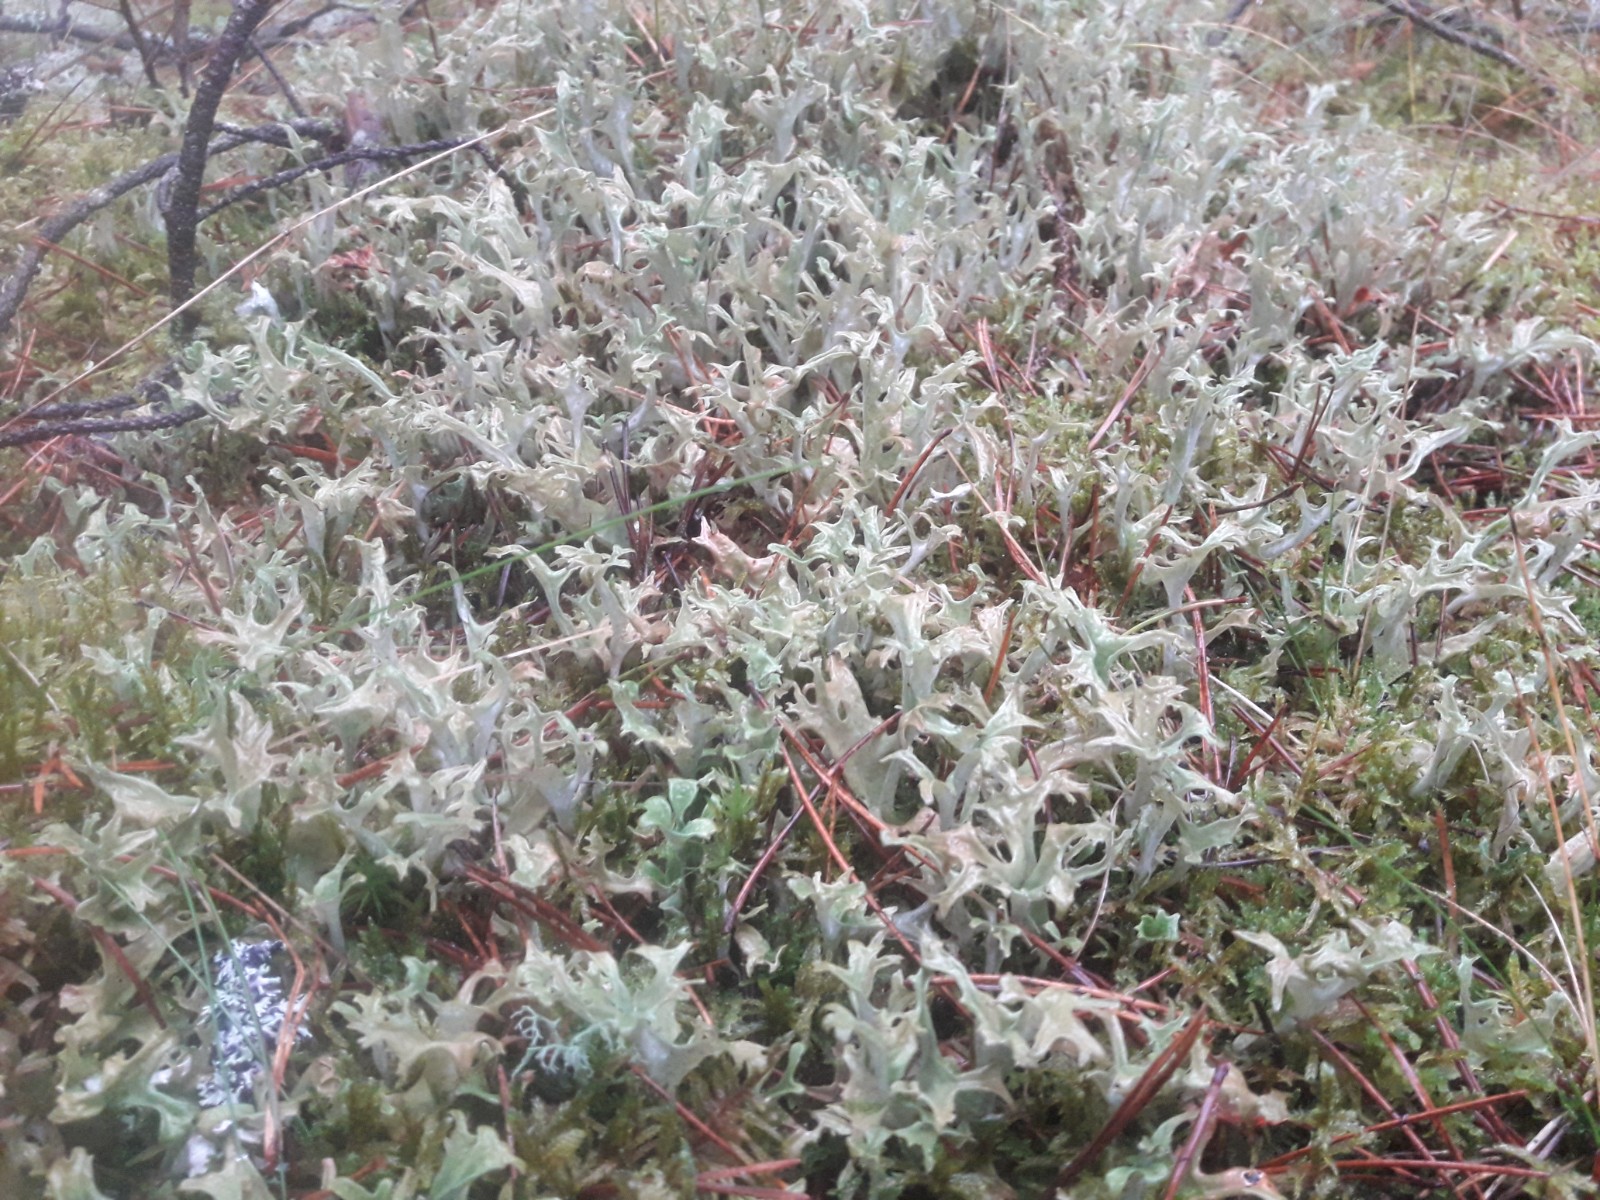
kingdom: Fungi
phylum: Ascomycota
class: Lecanoromycetes
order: Lecanorales
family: Parmeliaceae
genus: Cetraria
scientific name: Cetraria islandica
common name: islandsk kruslav
